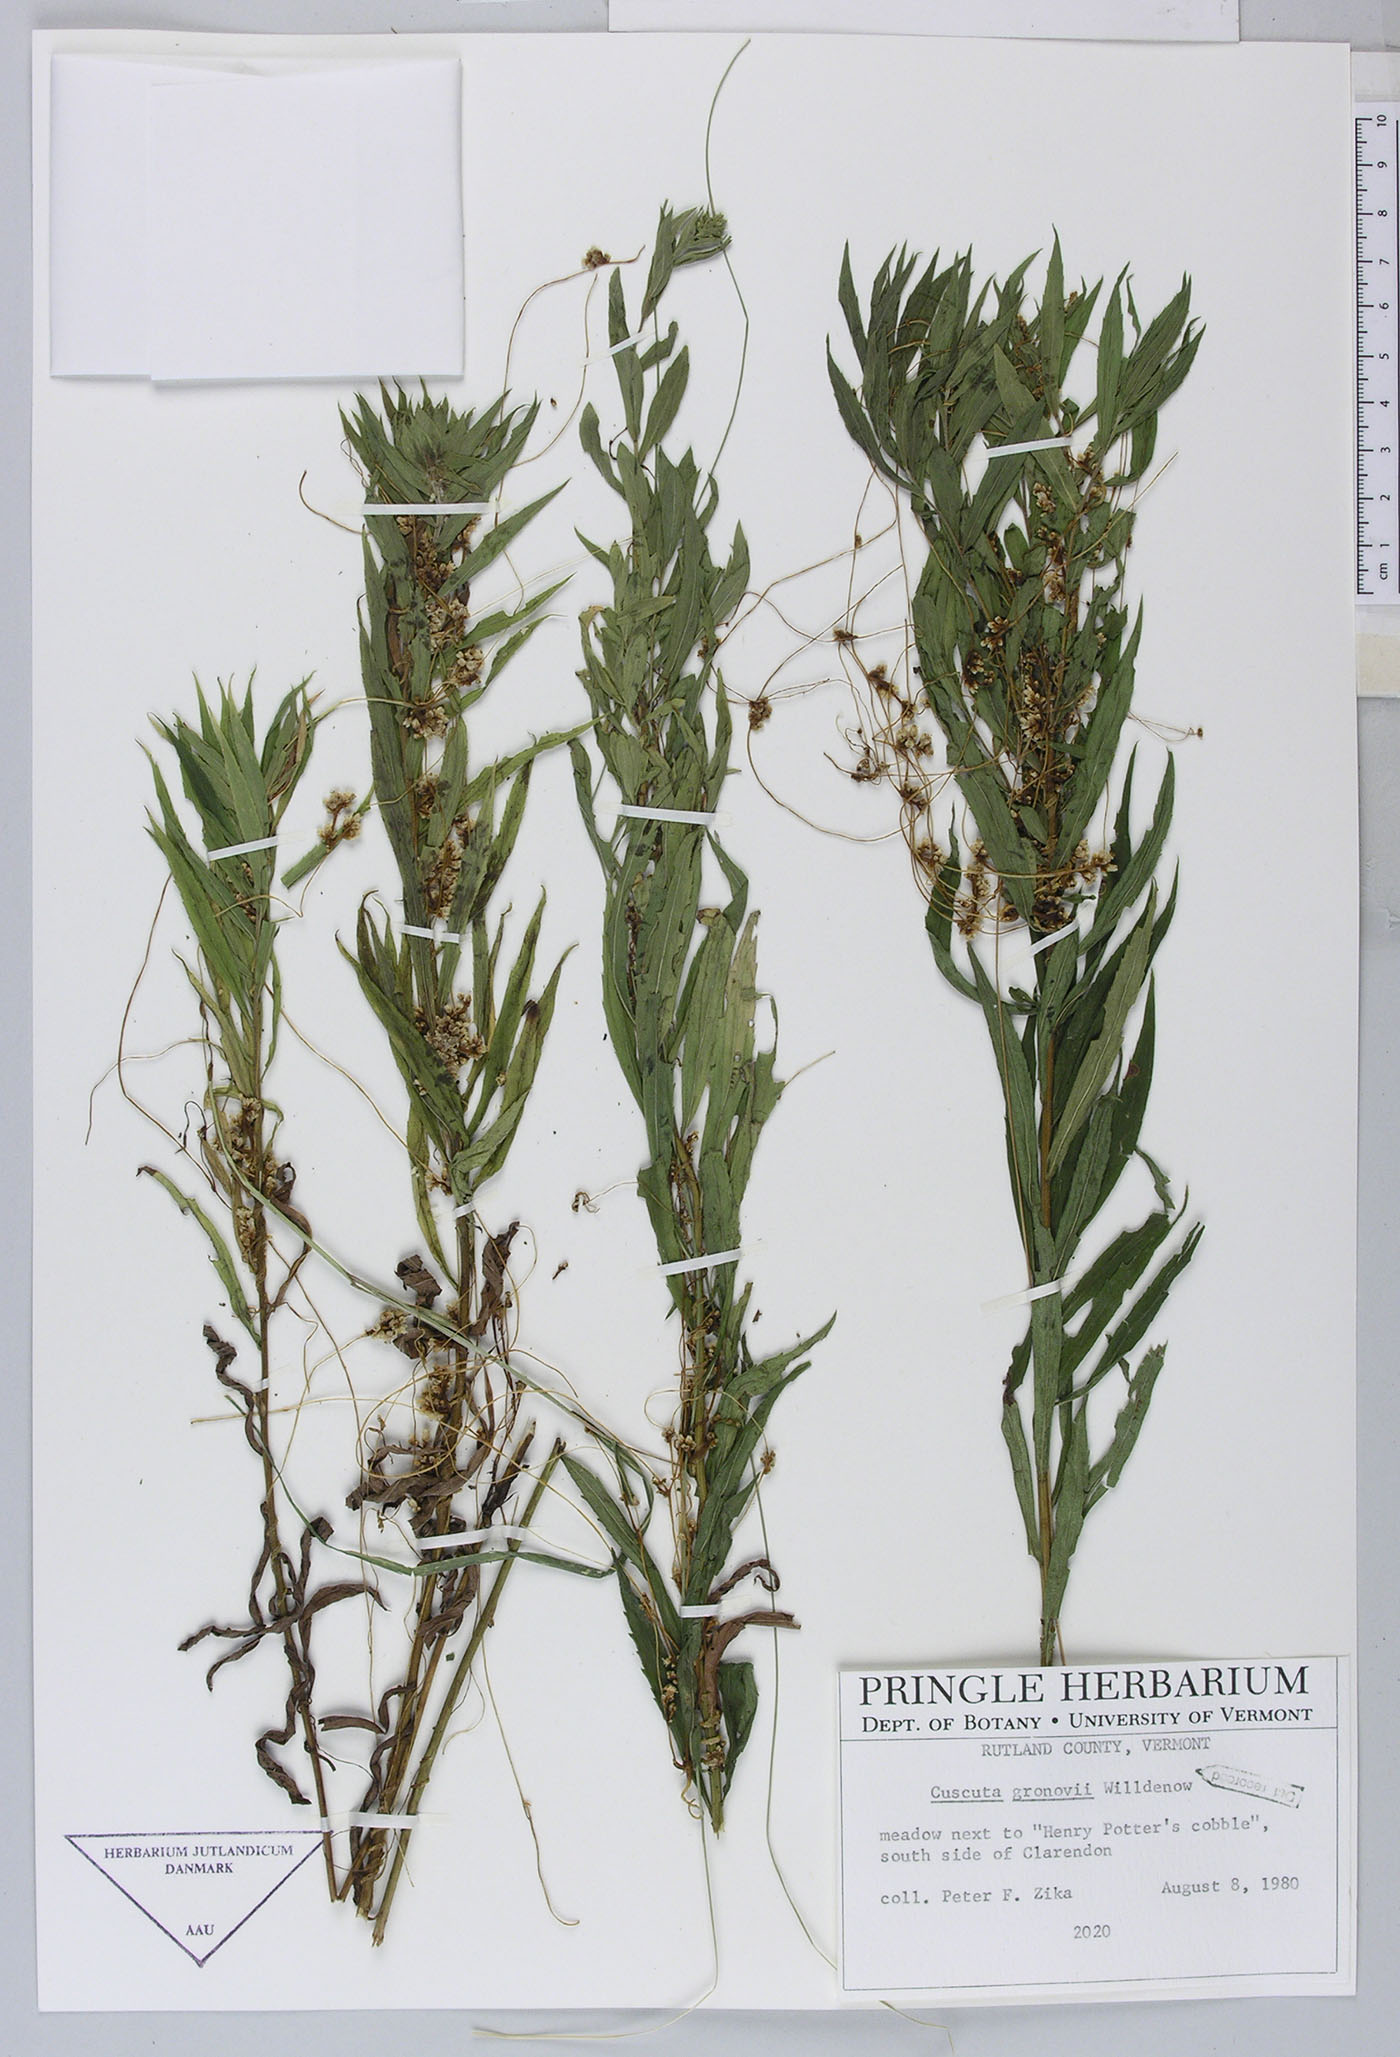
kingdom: Plantae
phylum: Tracheophyta
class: Magnoliopsida
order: Solanales
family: Convolvulaceae
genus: Cuscuta
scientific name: Cuscuta gronovii
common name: Common dodder
